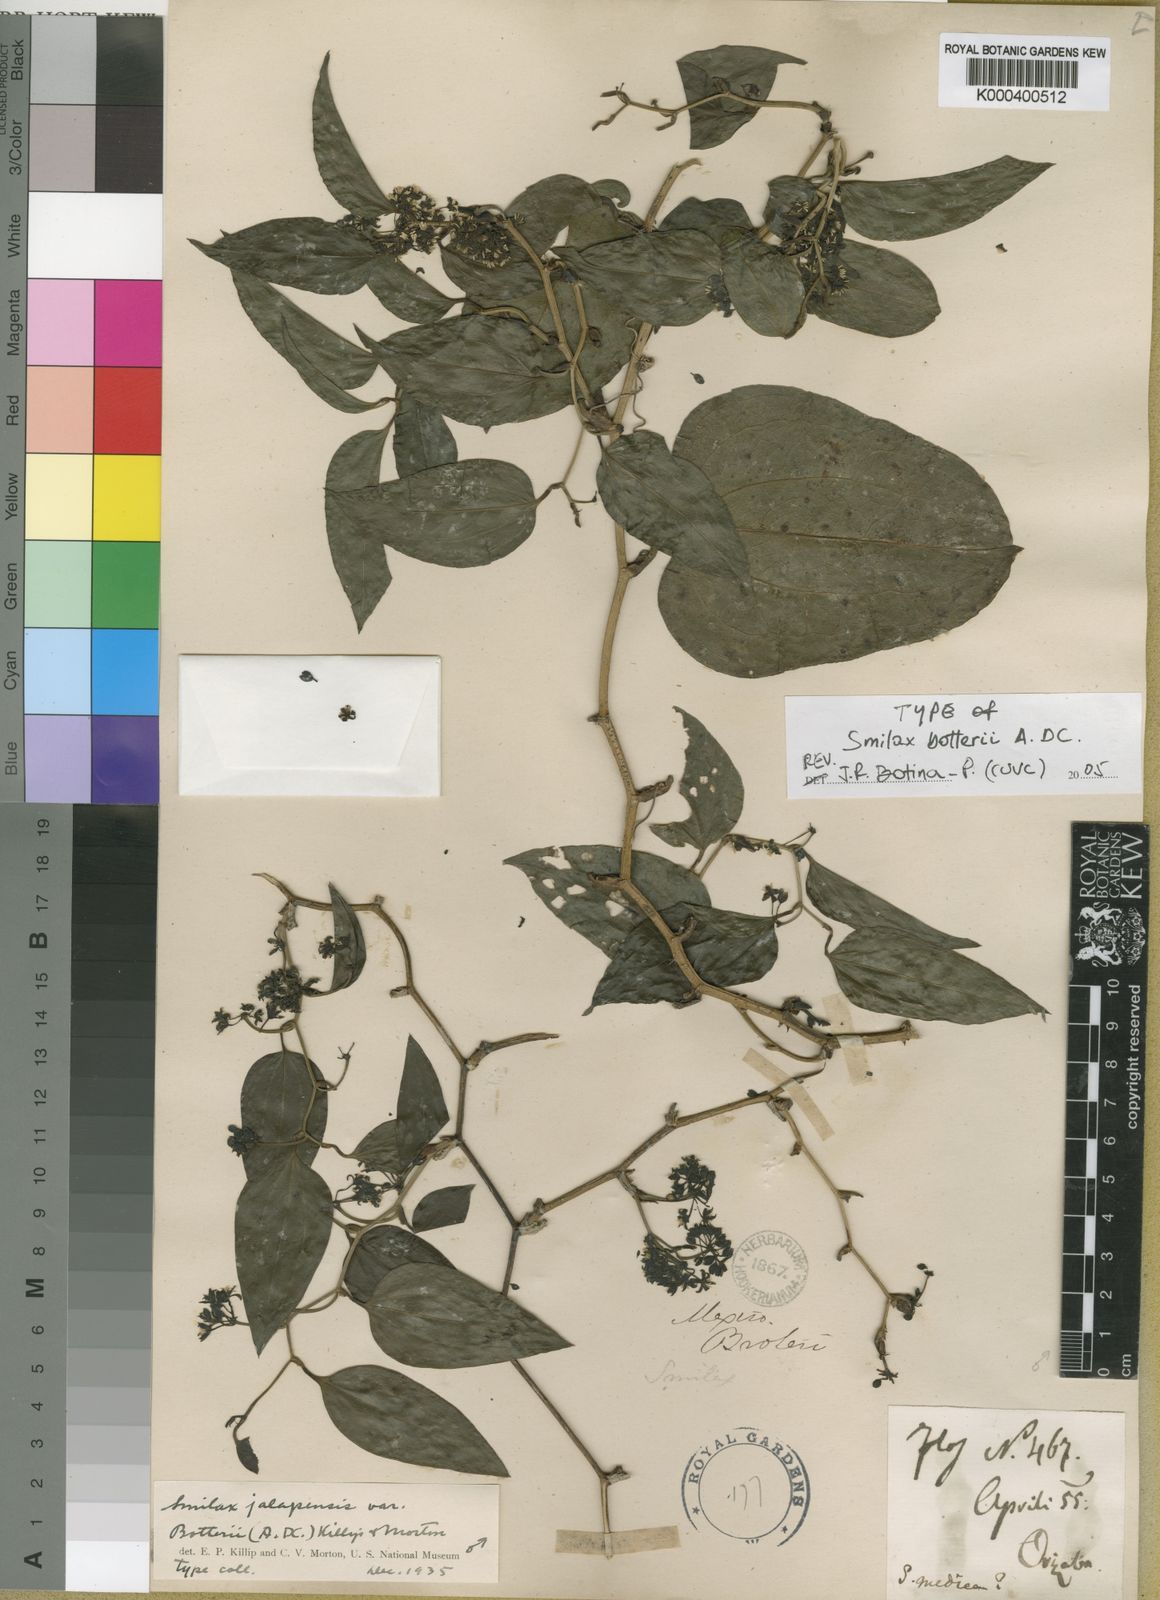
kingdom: Plantae
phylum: Tracheophyta
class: Liliopsida
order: Liliales
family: Smilacaceae
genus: Smilax
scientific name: Smilax moranensis
